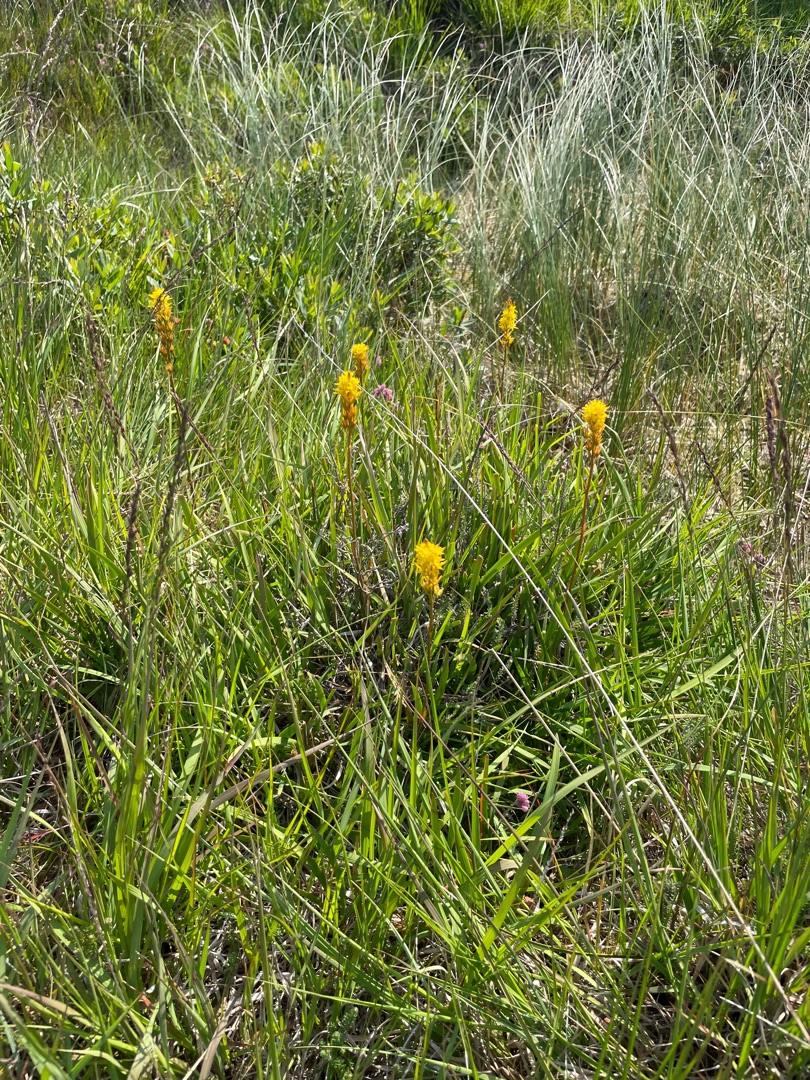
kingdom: Plantae
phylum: Tracheophyta
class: Liliopsida
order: Dioscoreales
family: Nartheciaceae
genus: Narthecium
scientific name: Narthecium ossifragum
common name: Benbræk
